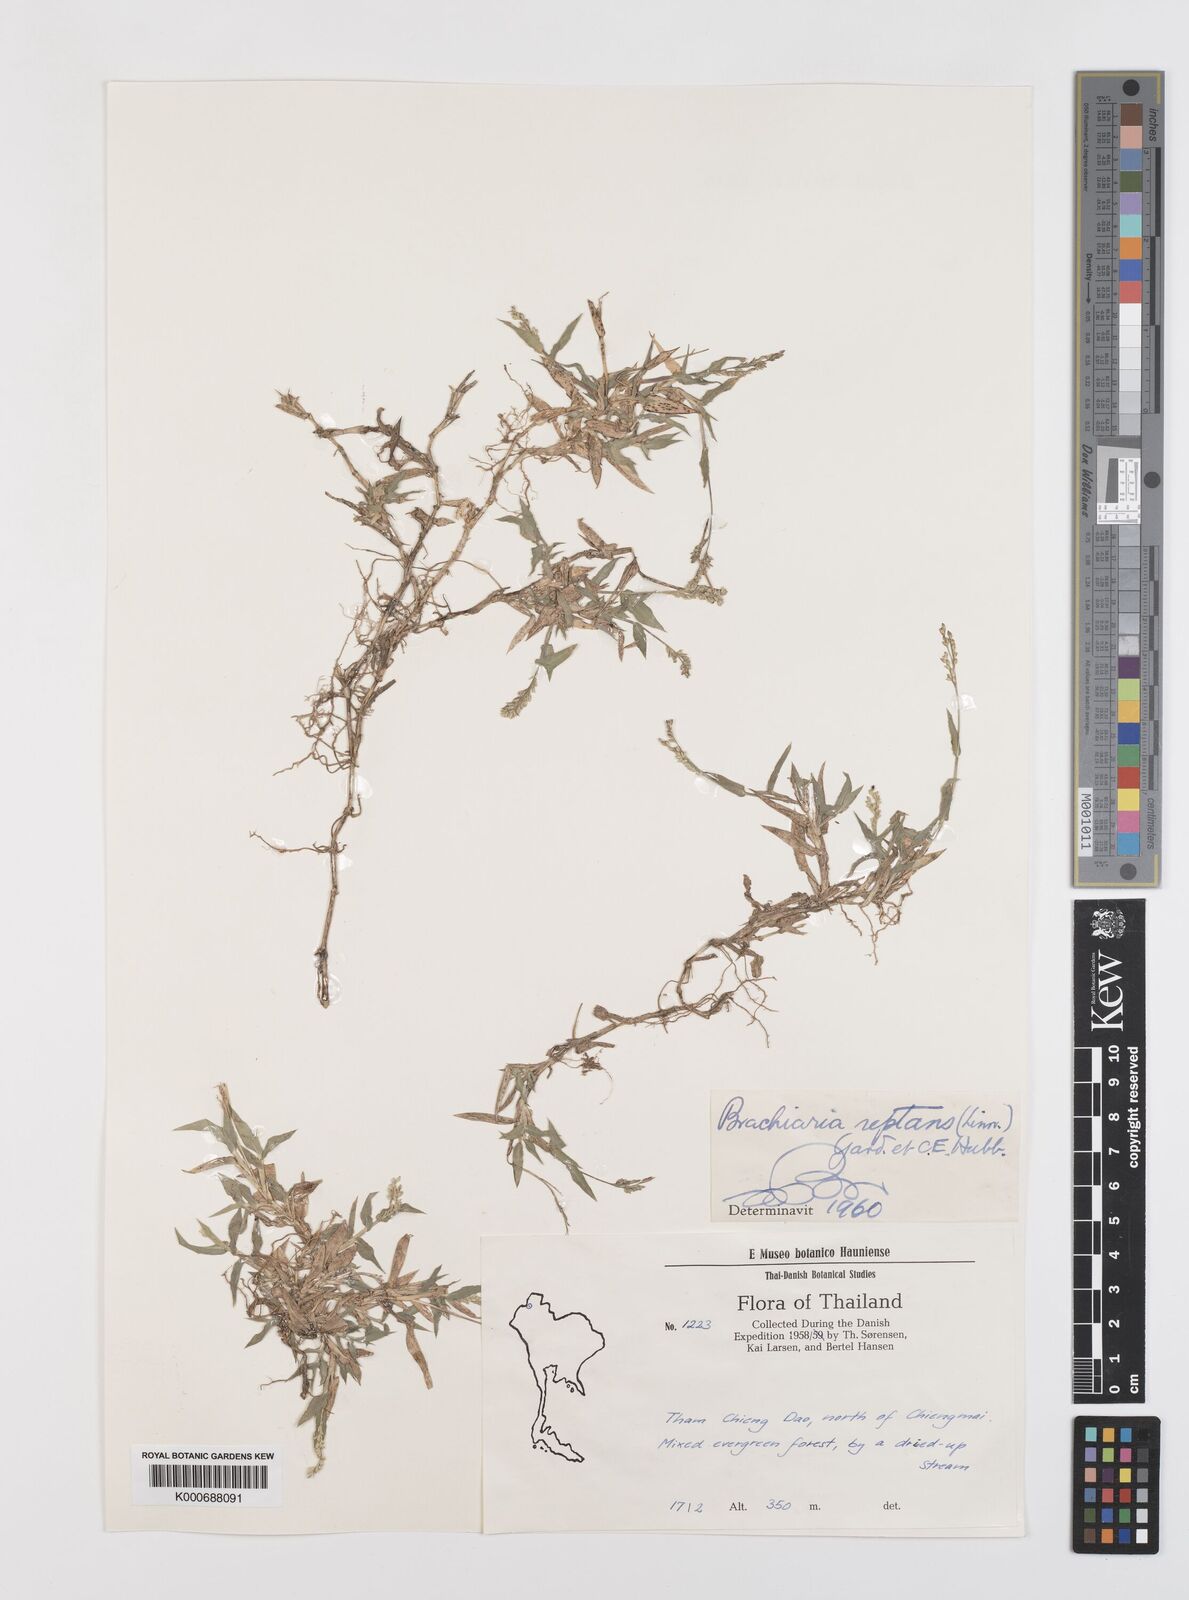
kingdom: Plantae
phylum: Tracheophyta
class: Liliopsida
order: Poales
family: Poaceae
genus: Urochloa
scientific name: Urochloa reptans
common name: Sprawling signalgrass
